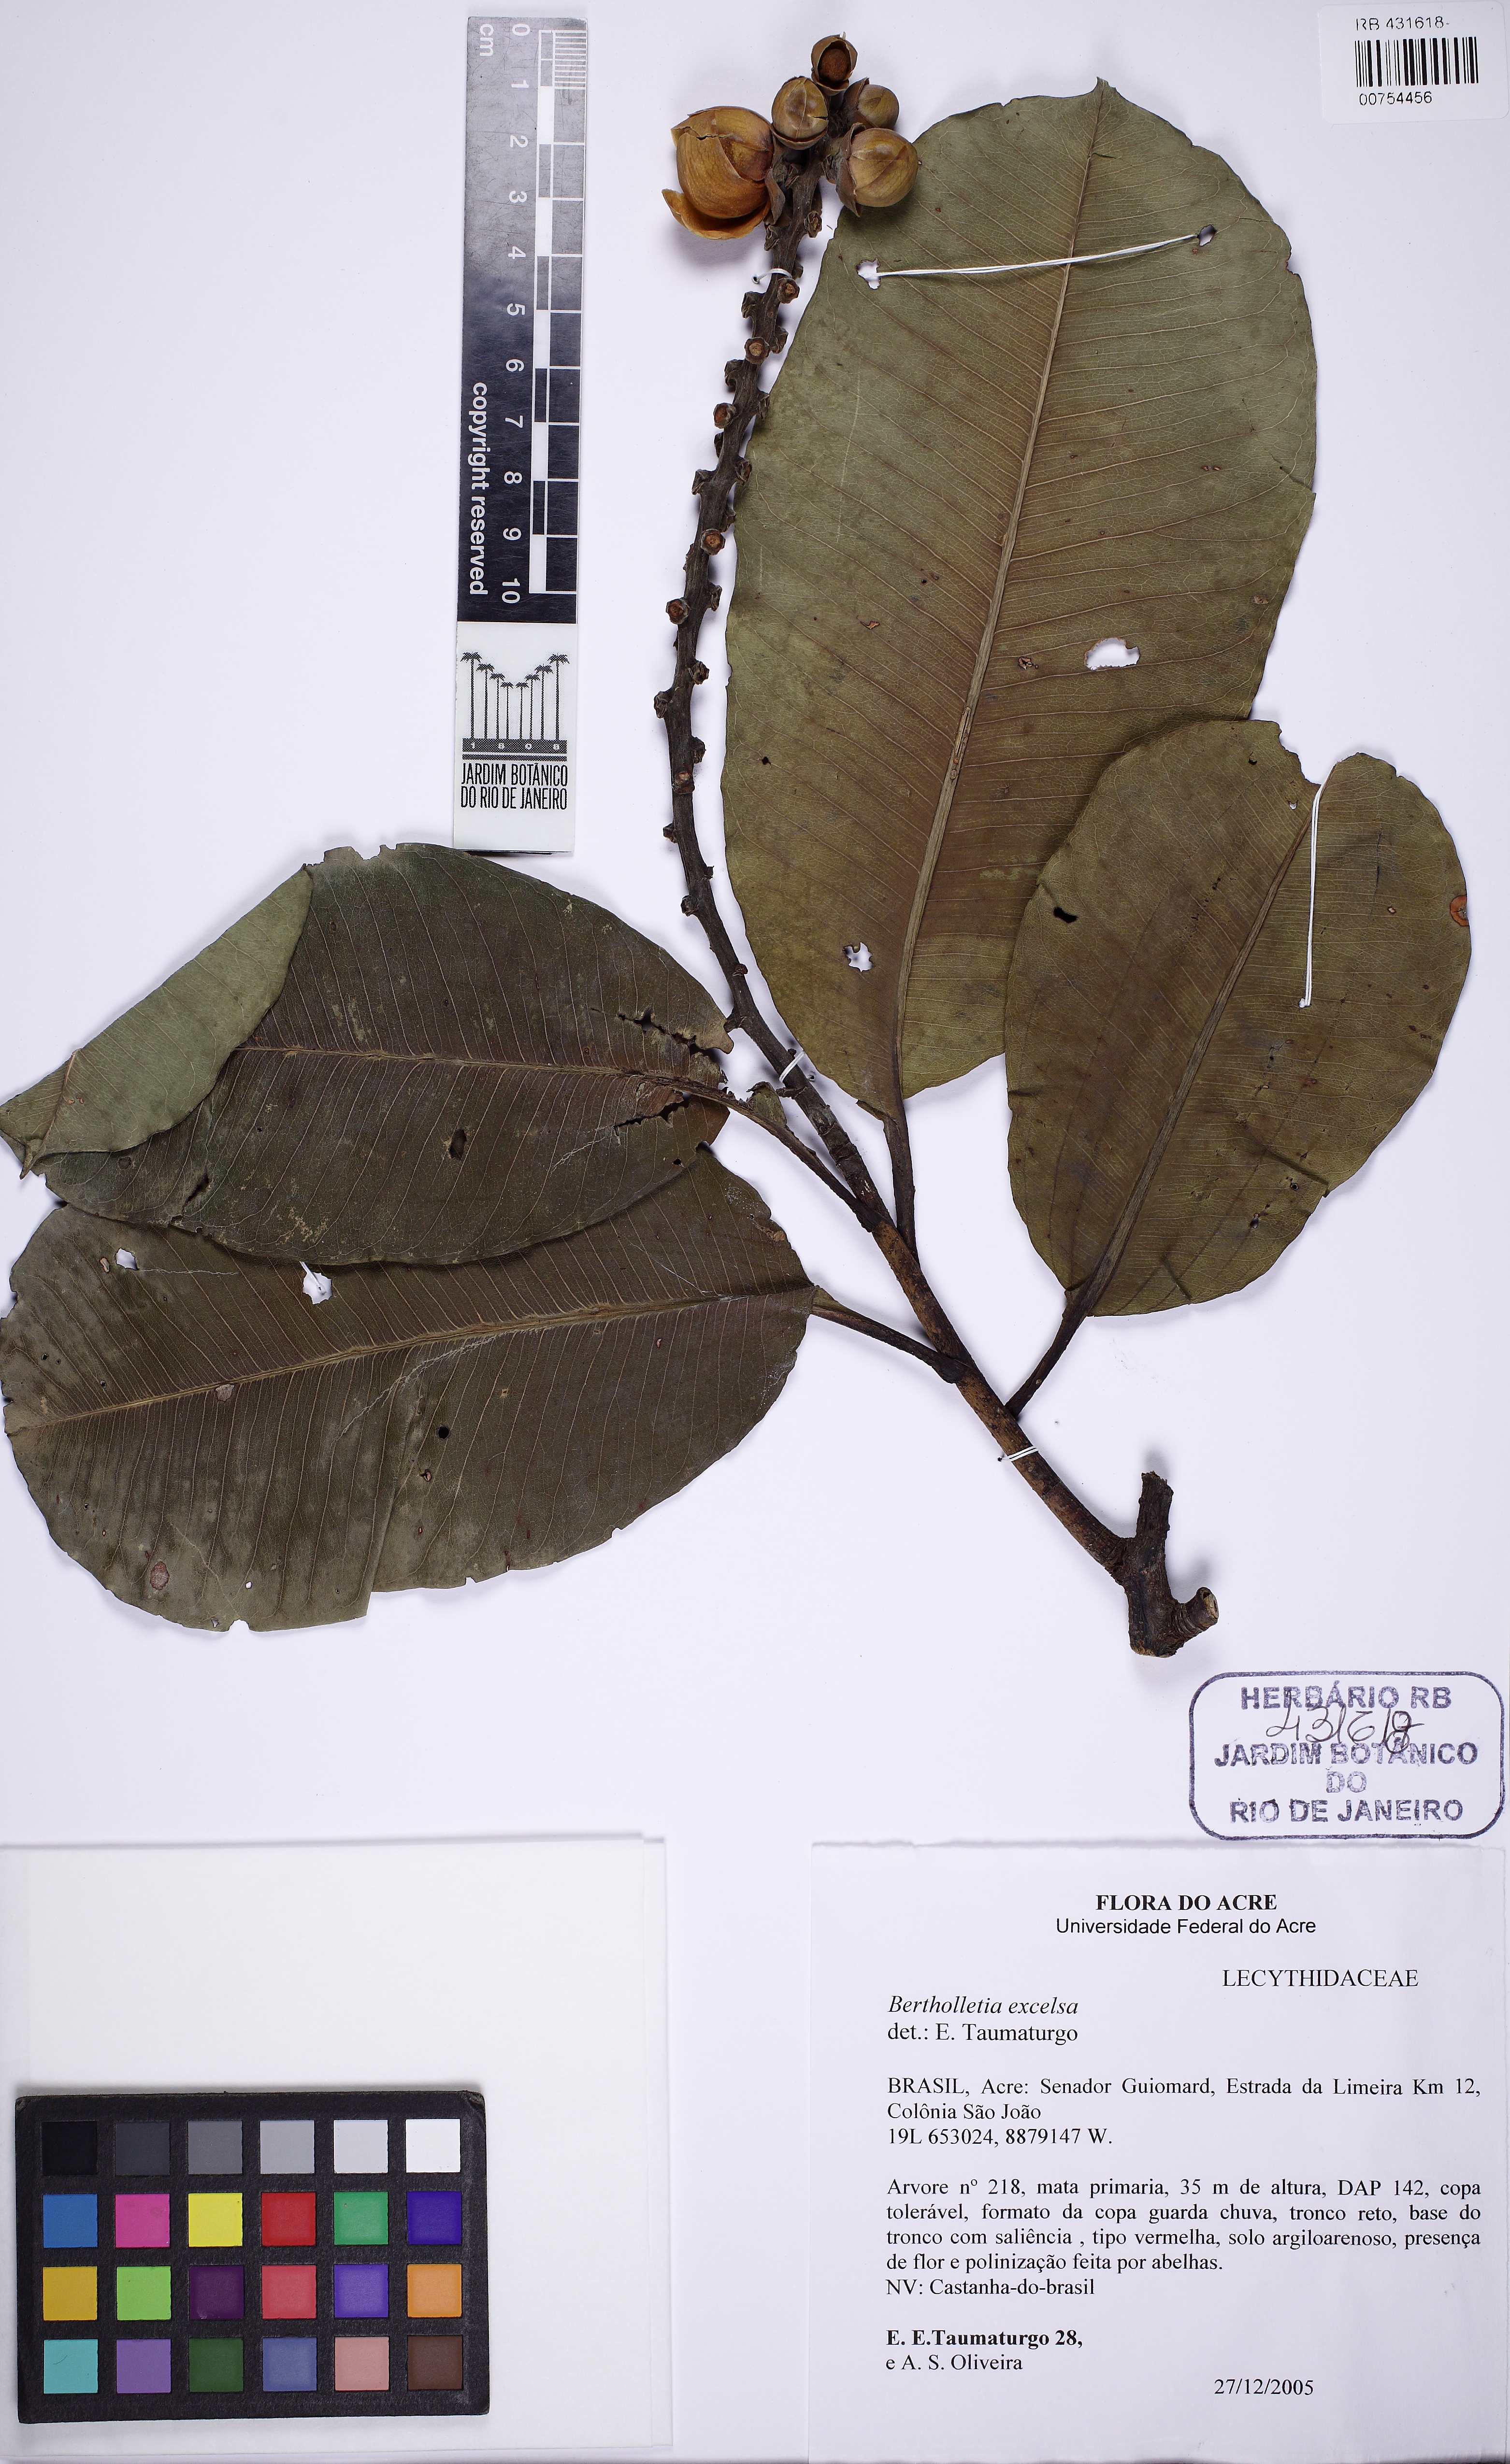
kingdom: Plantae
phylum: Tracheophyta
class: Magnoliopsida
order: Ericales
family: Lecythidaceae
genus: Bertholletia
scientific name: Bertholletia excelsa
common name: Brazil-nut tree
